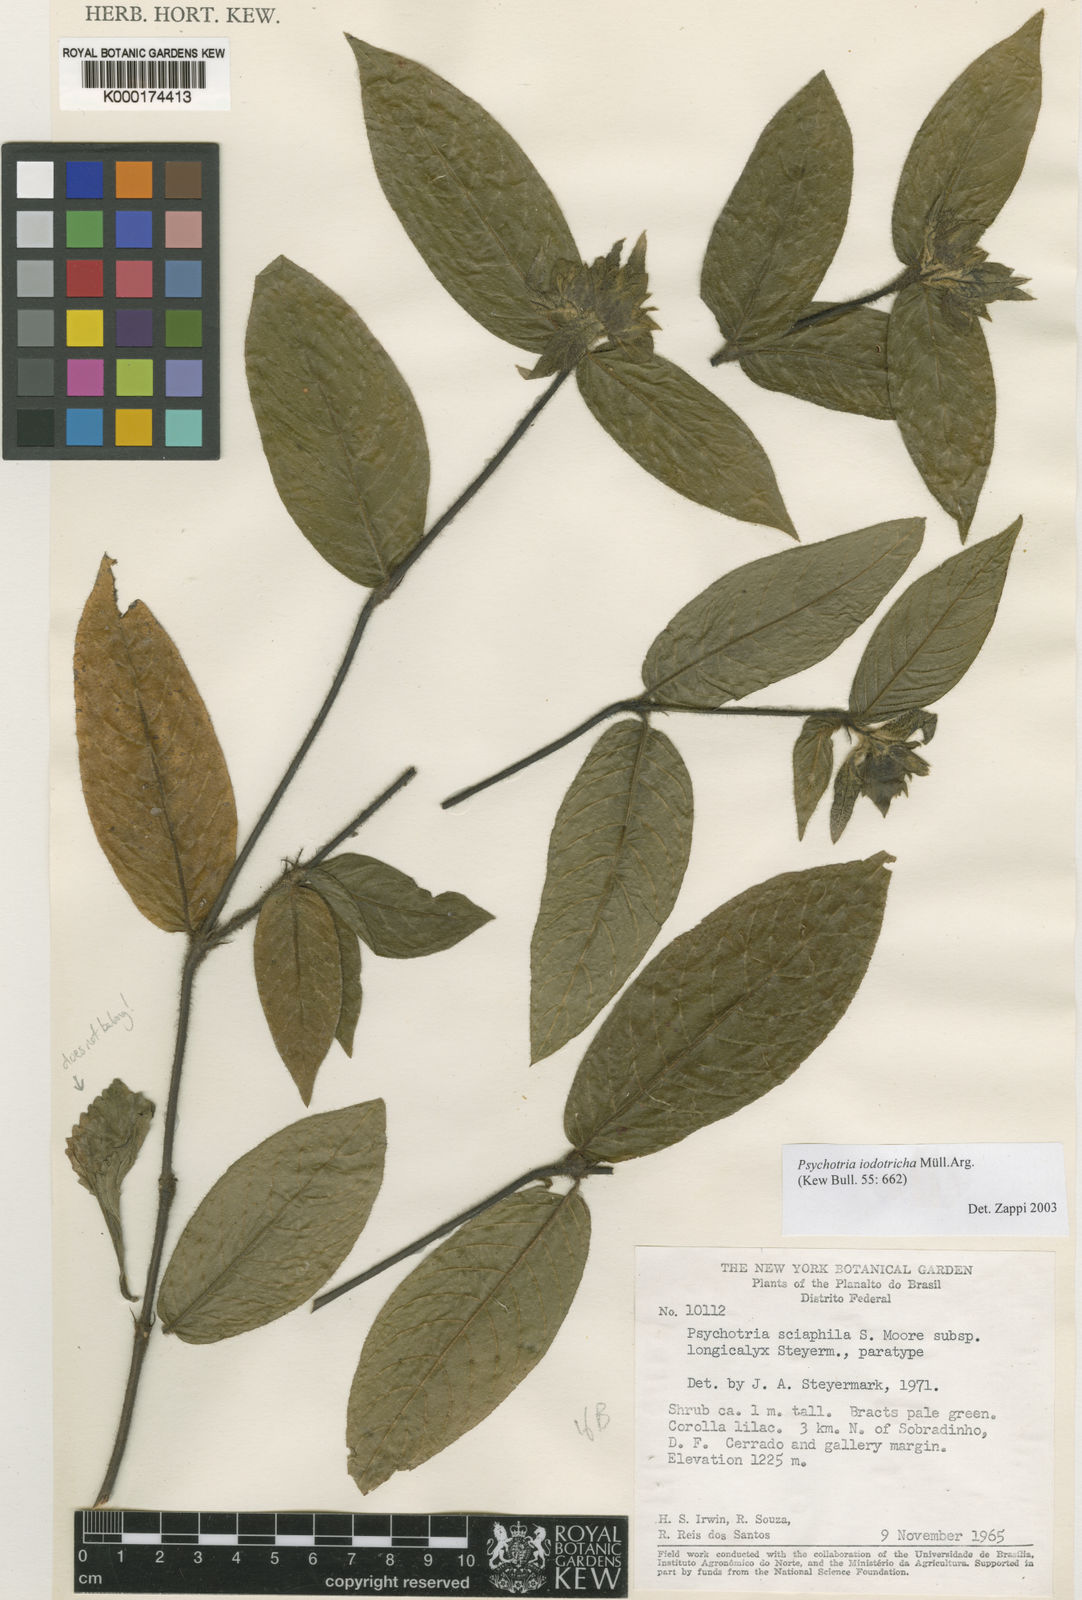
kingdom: Plantae
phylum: Tracheophyta
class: Magnoliopsida
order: Gentianales
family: Rubiaceae
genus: Psychotria
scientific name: Psychotria
